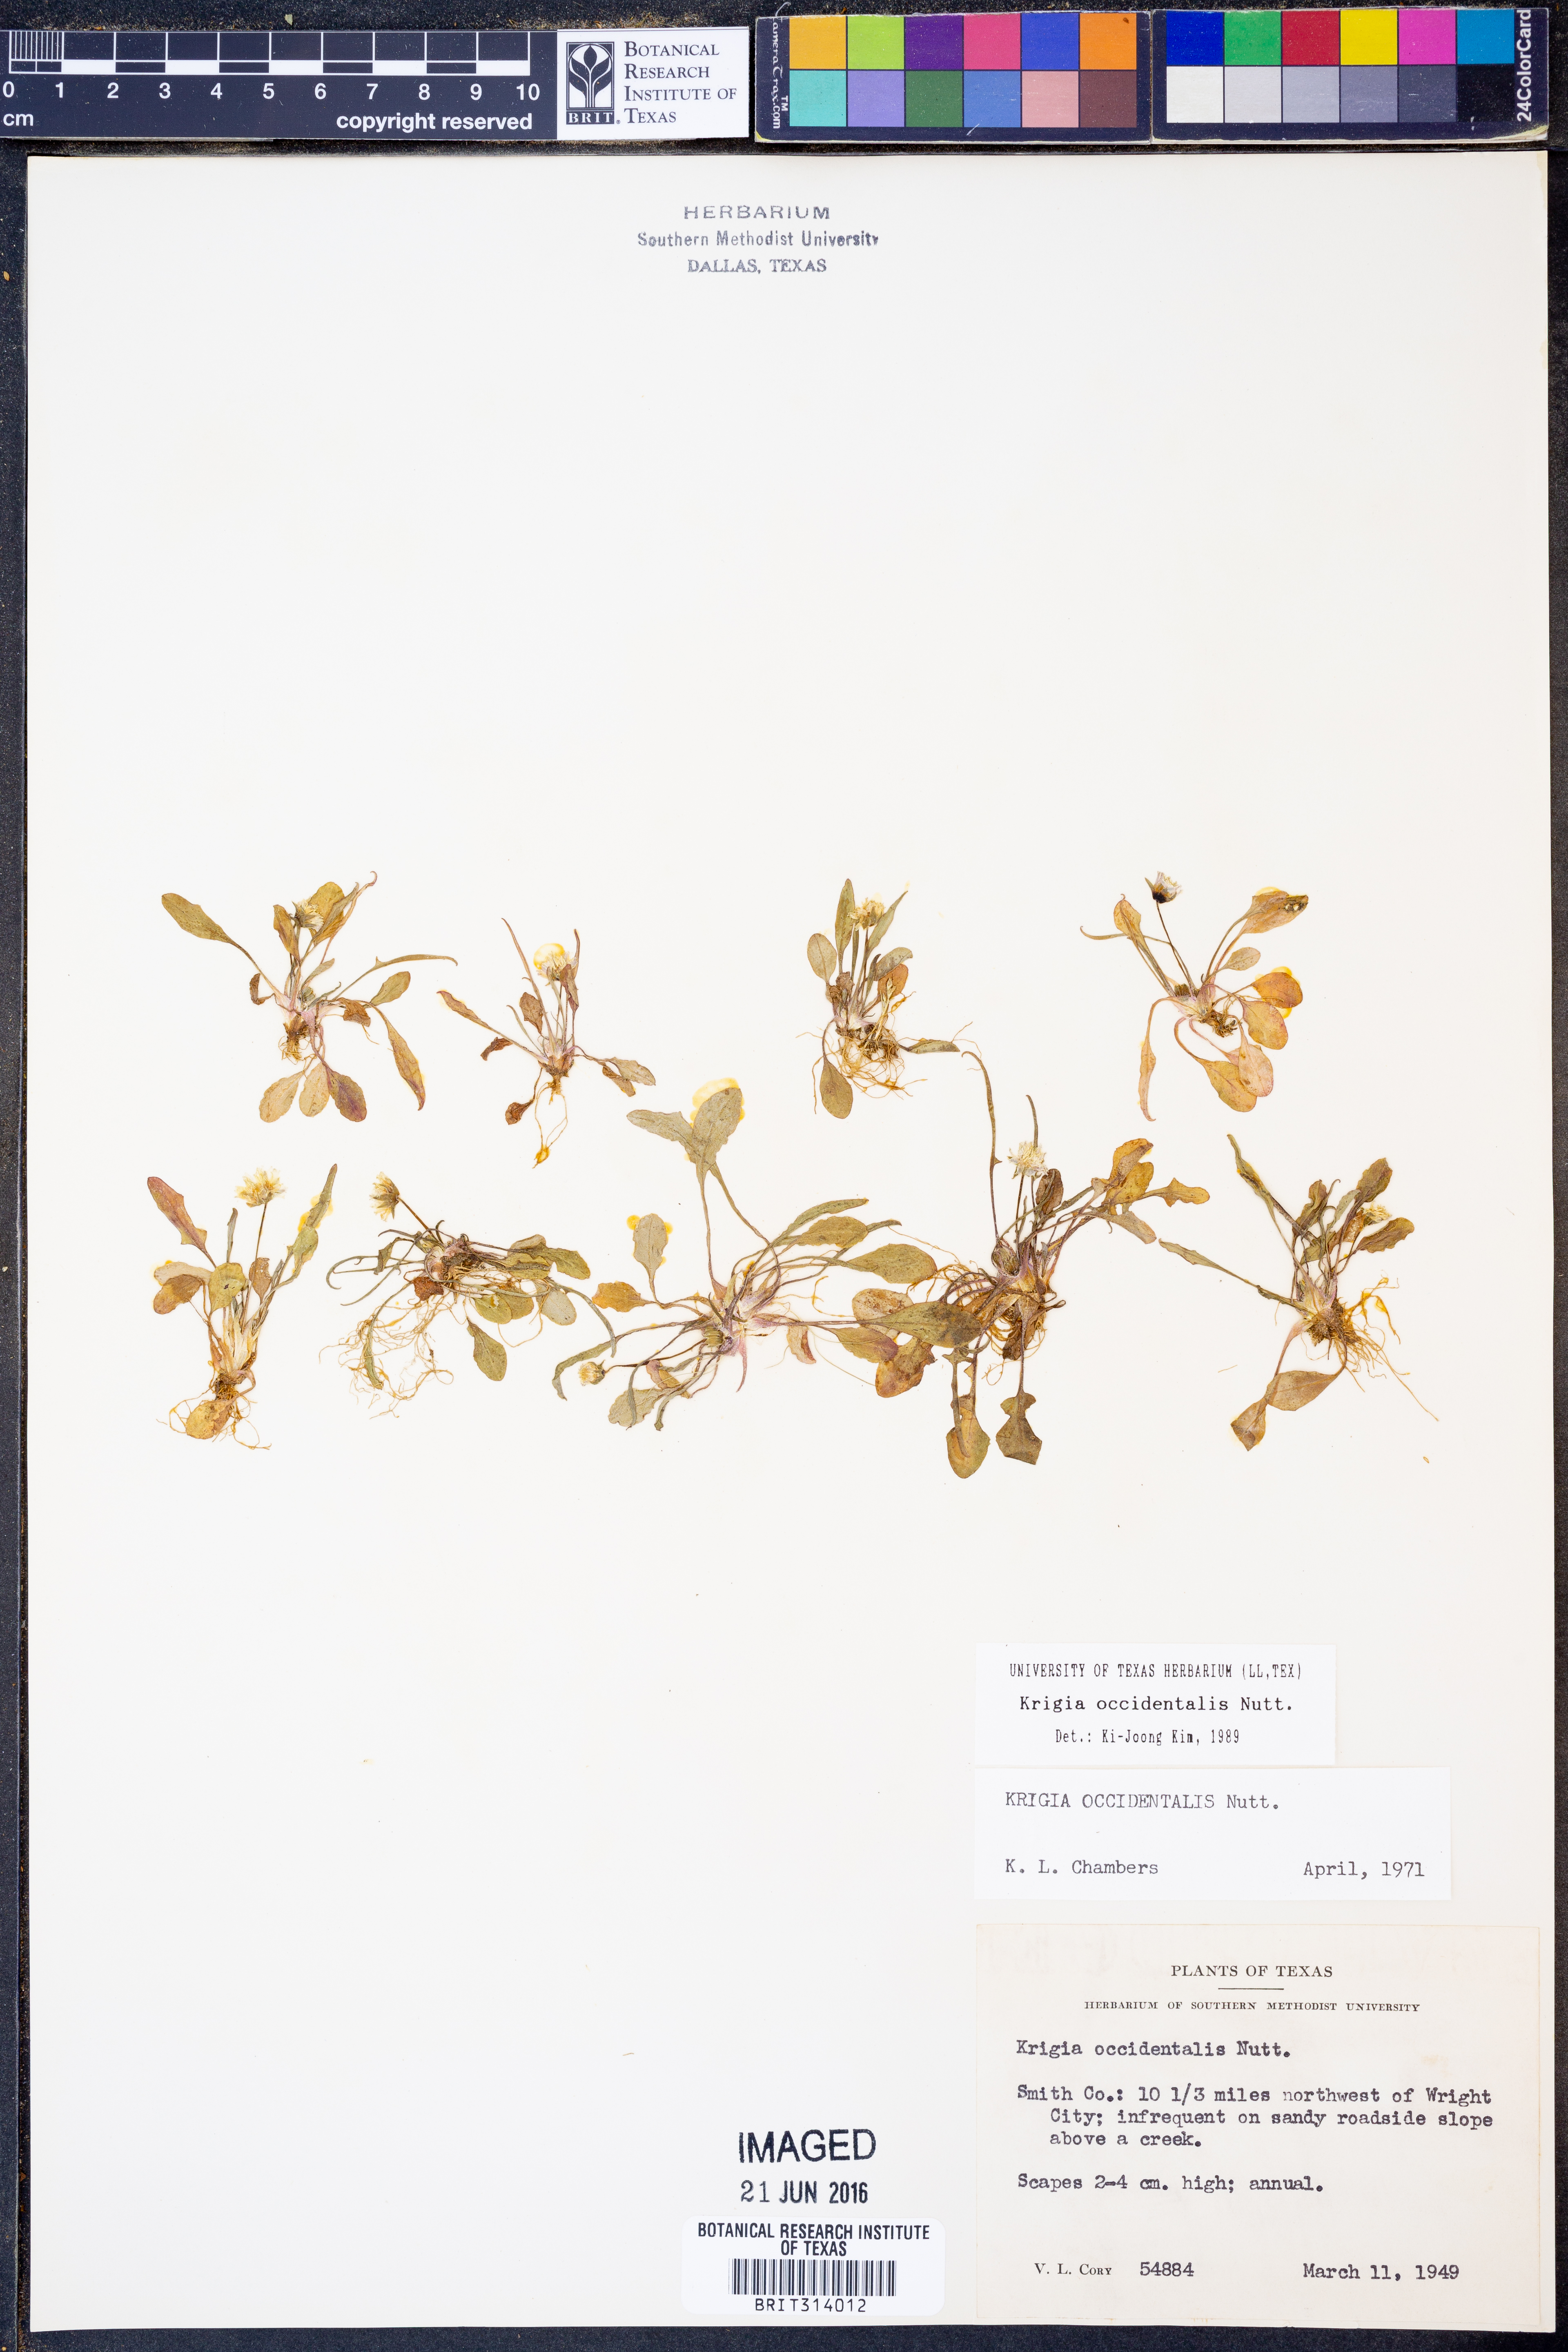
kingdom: Plantae
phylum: Tracheophyta
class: Magnoliopsida
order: Asterales
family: Asteraceae
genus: Krigia
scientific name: Krigia occidentalis
